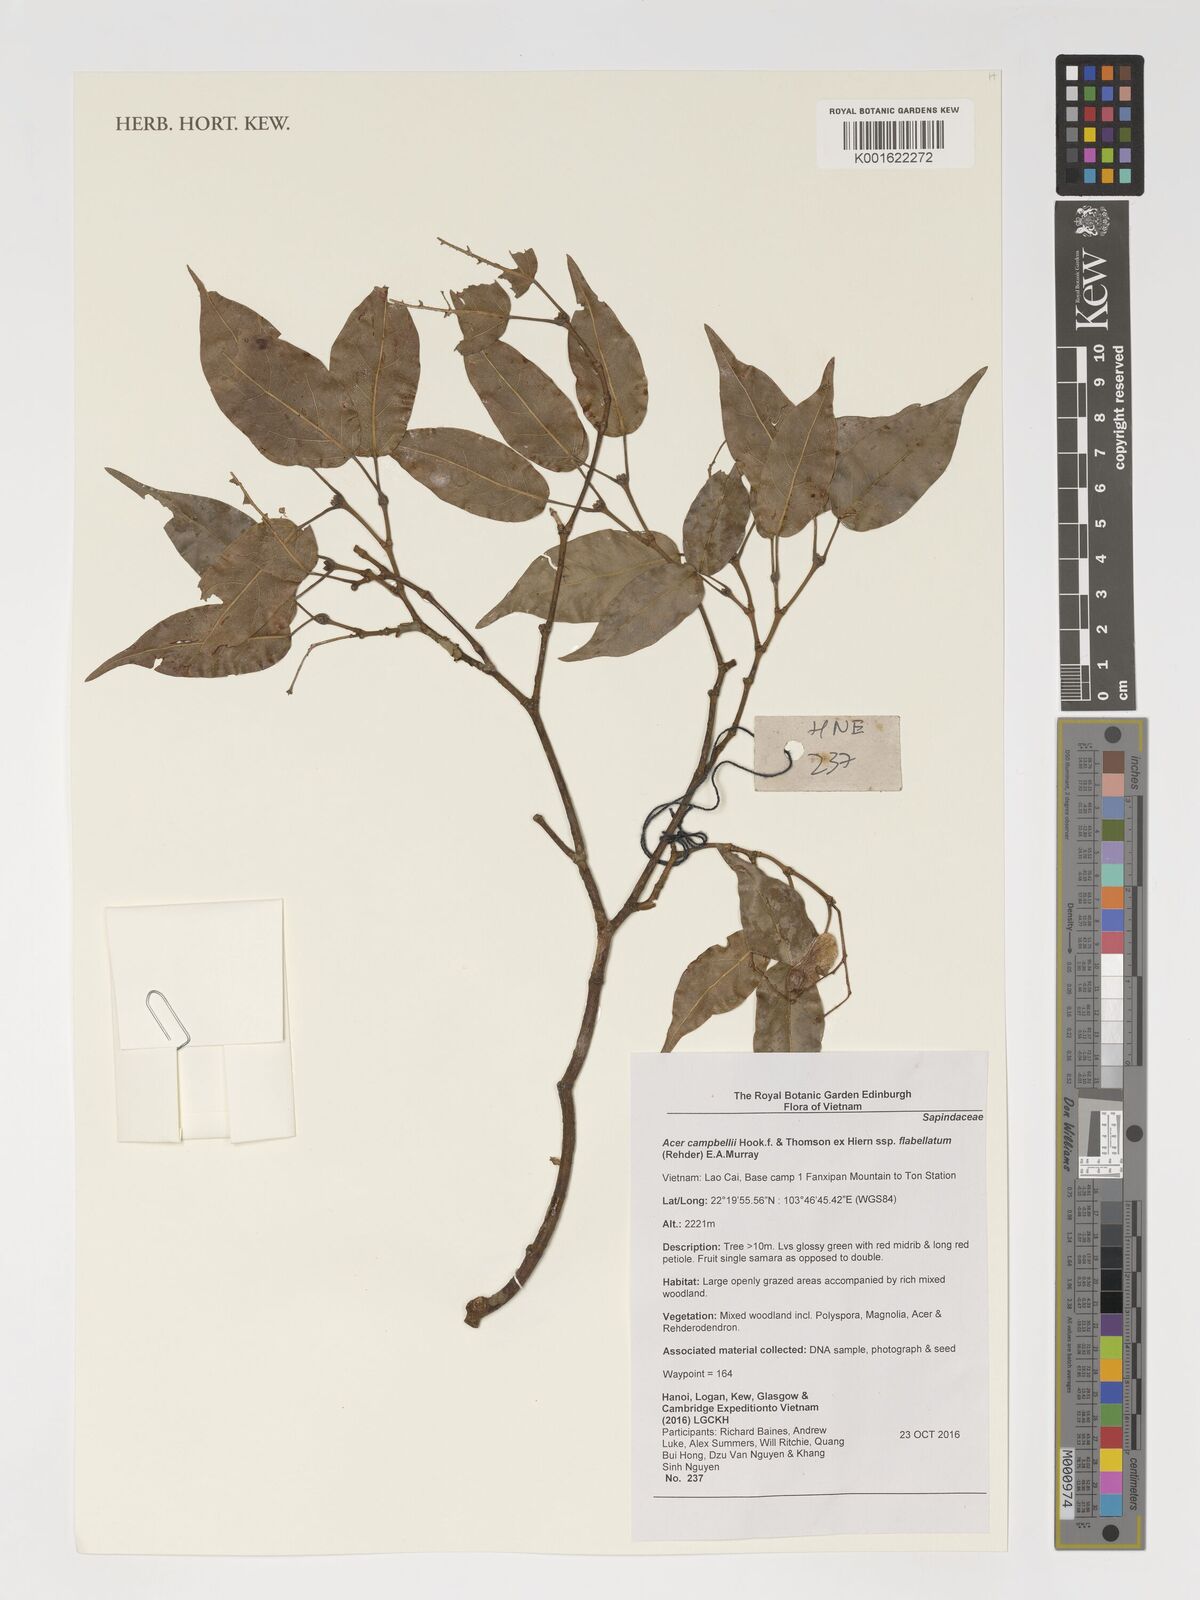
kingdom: Plantae
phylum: Tracheophyta
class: Magnoliopsida
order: Sapindales
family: Sapindaceae
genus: Acer
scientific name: Acer campbellii
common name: Campbell's maple
